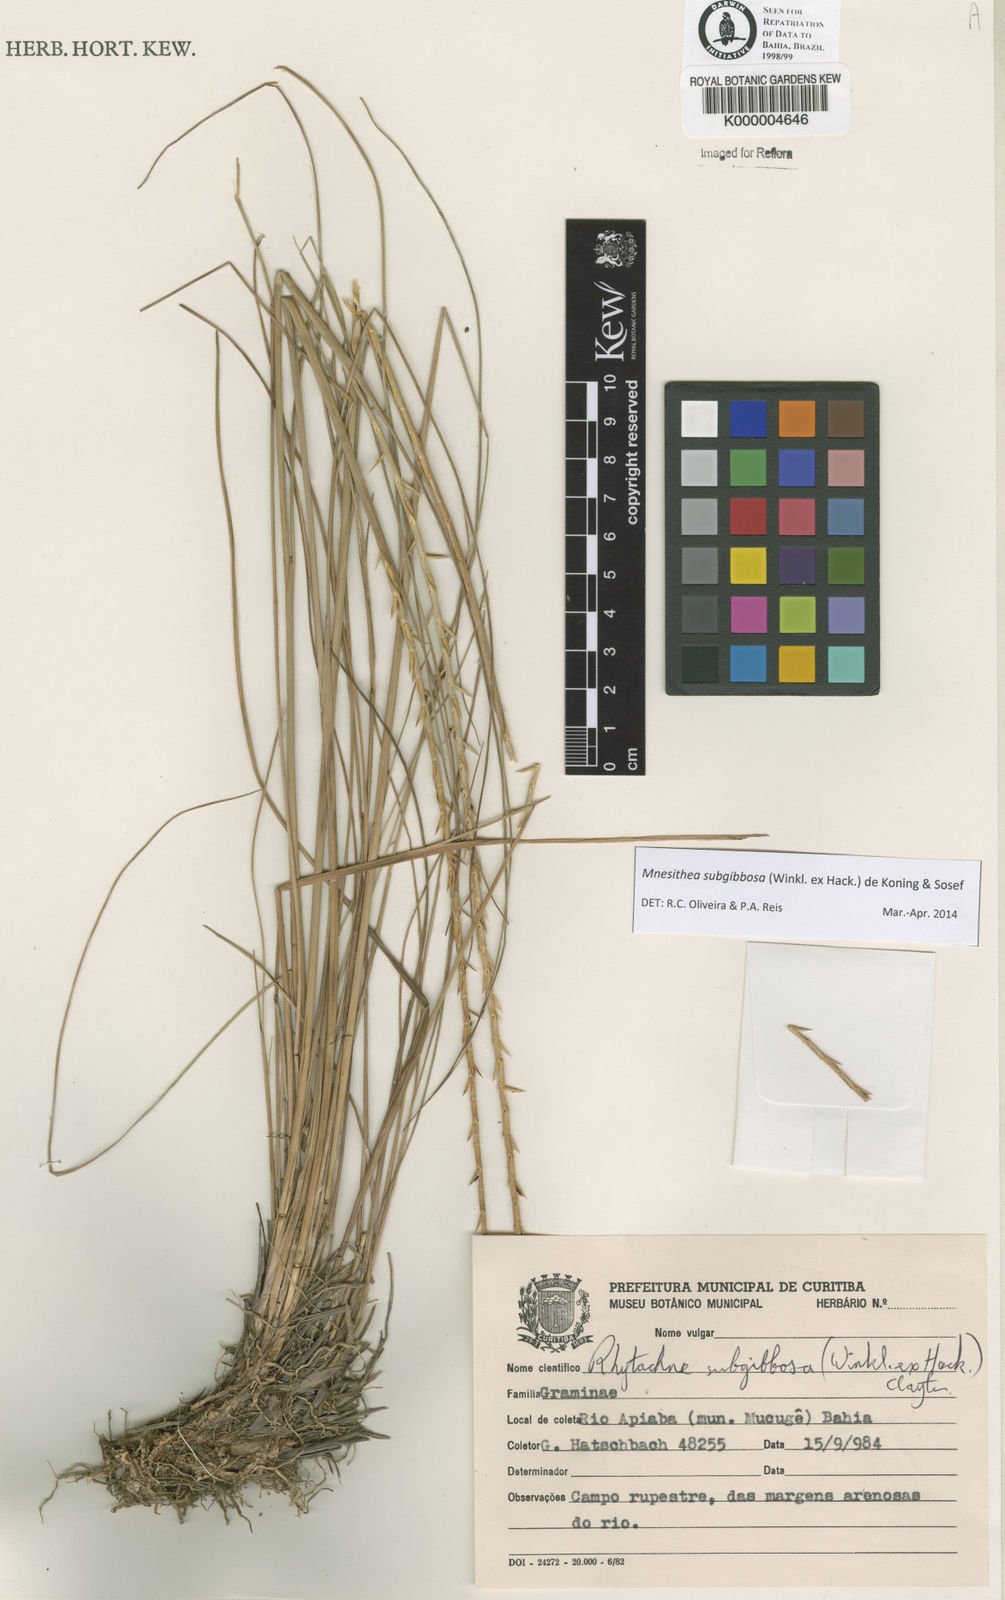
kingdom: Plantae
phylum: Tracheophyta
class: Liliopsida
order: Poales
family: Poaceae
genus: Rhytachne
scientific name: Rhytachne subgibbosa
